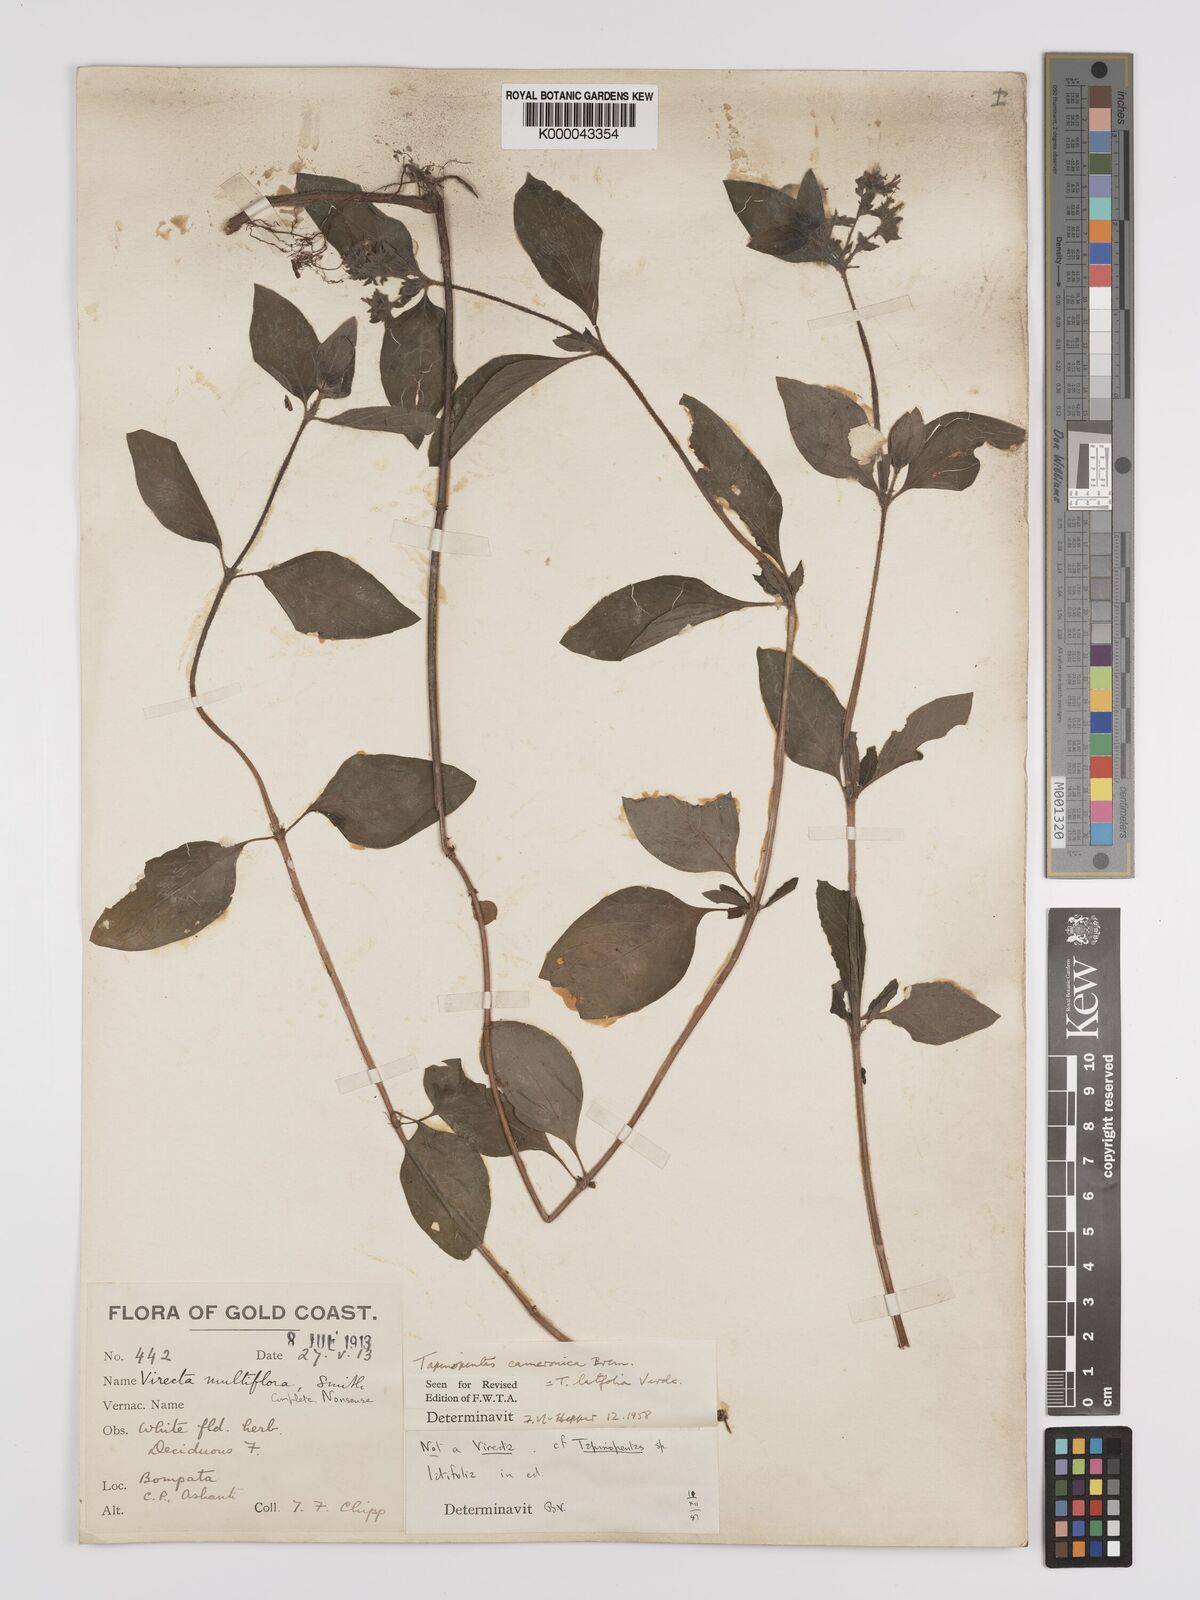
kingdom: Plantae
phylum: Tracheophyta
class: Magnoliopsida
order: Gentianales
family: Rubiaceae
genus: Otomeria
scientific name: Otomeria cameronica
